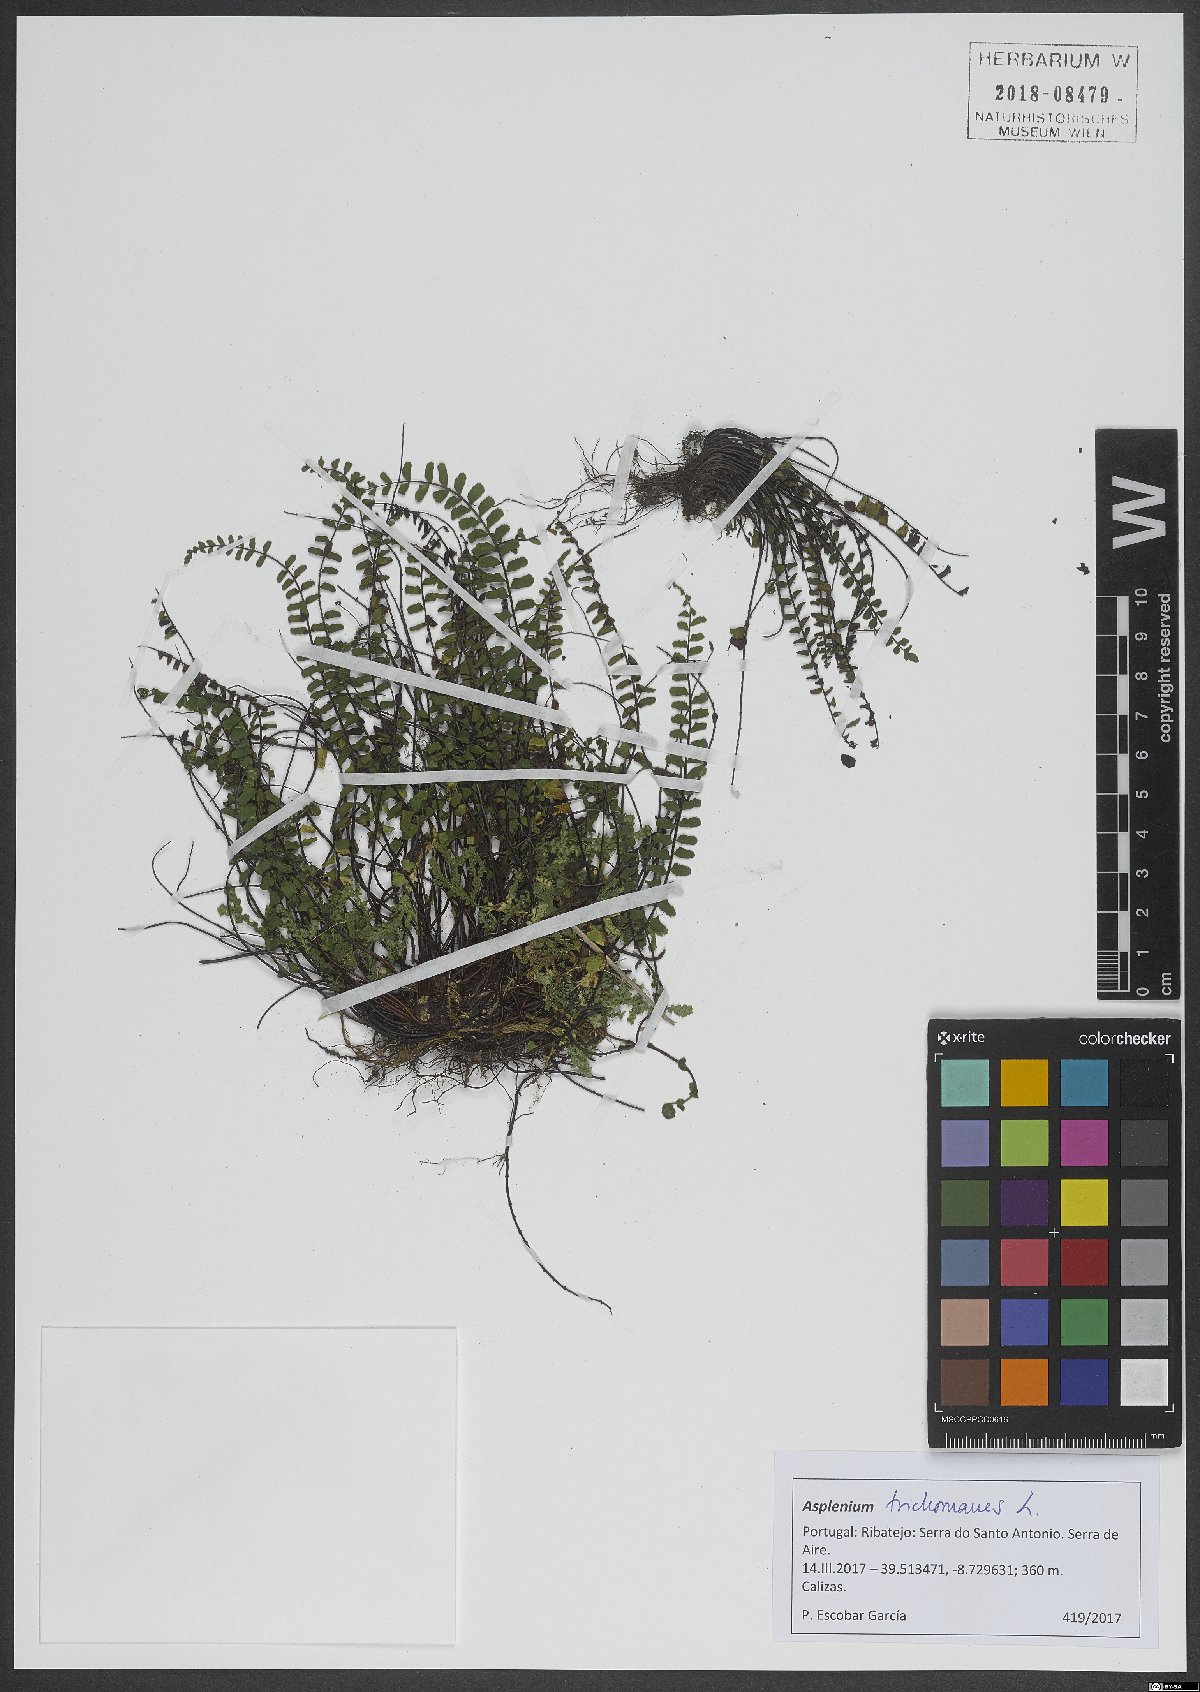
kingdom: Plantae
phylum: Tracheophyta
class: Polypodiopsida
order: Polypodiales
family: Aspleniaceae
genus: Asplenium
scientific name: Asplenium trichomanes
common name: Maidenhair spleenwort
